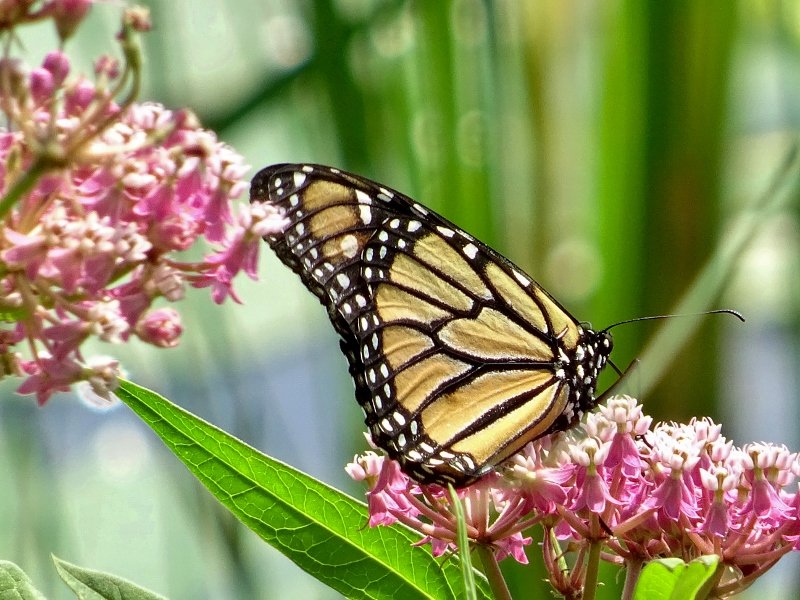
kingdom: Animalia
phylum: Arthropoda
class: Insecta
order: Lepidoptera
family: Nymphalidae
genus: Danaus
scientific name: Danaus plexippus
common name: Monarch
